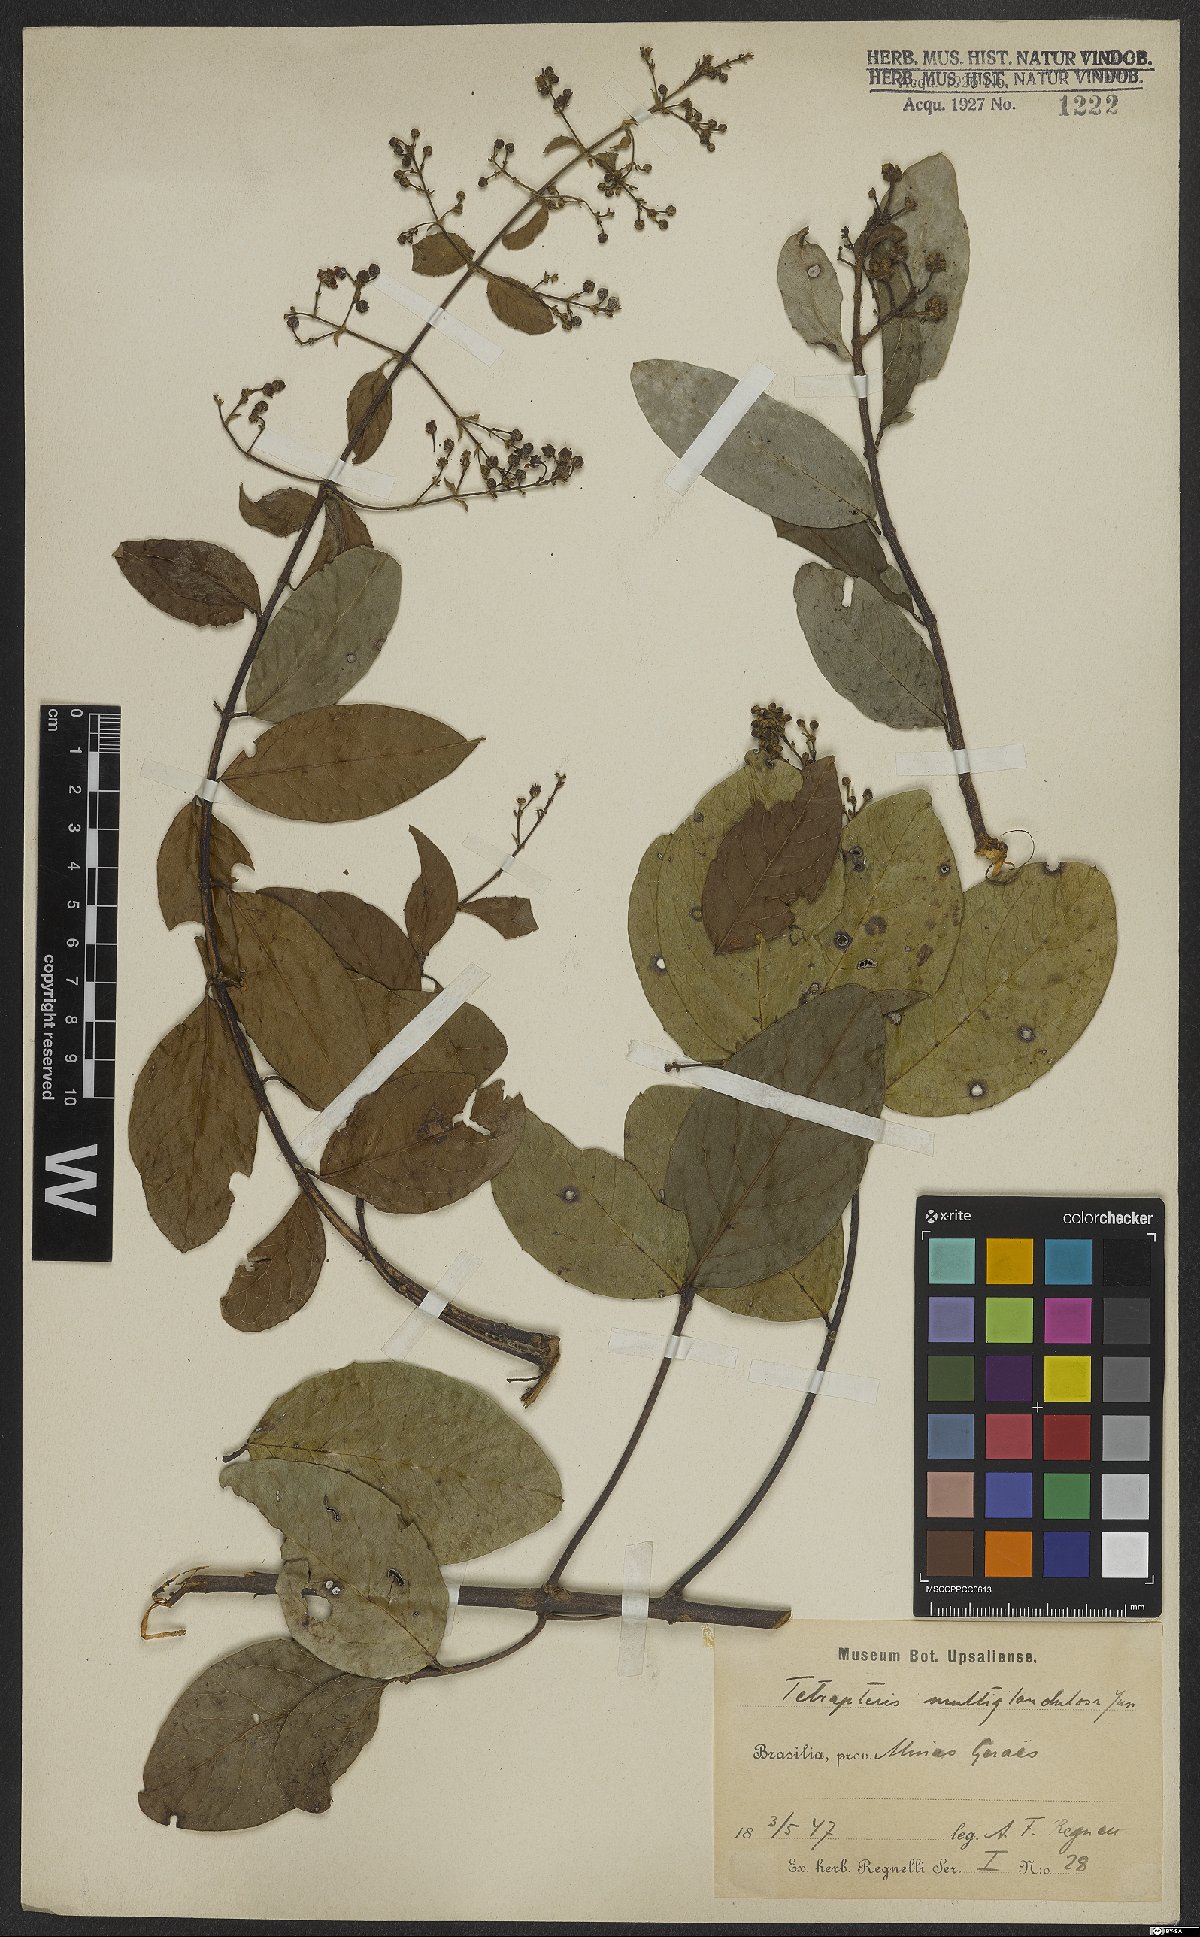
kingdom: Plantae
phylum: Tracheophyta
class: Magnoliopsida
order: Malpighiales
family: Malpighiaceae
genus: Niedenzuella
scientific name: Niedenzuella multiglandulosa
